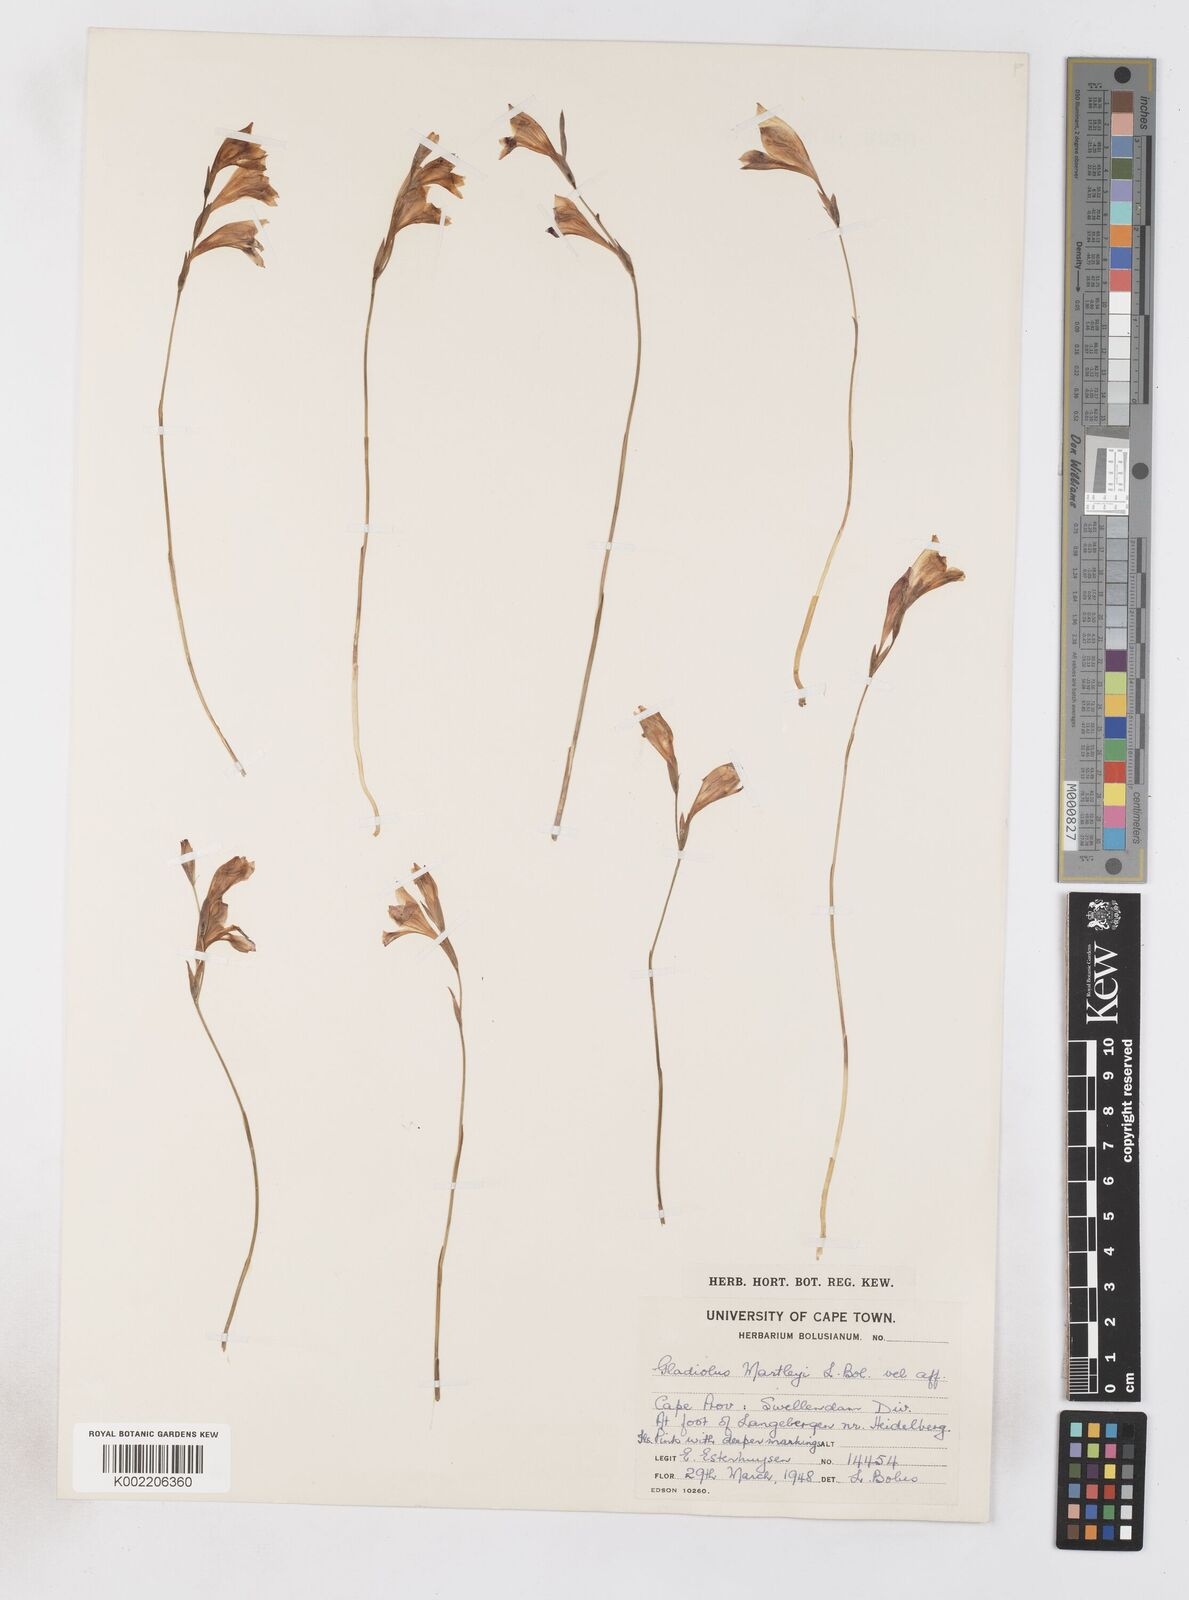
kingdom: Plantae
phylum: Tracheophyta
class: Liliopsida
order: Asparagales
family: Iridaceae
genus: Gladiolus
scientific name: Gladiolus martleyi
